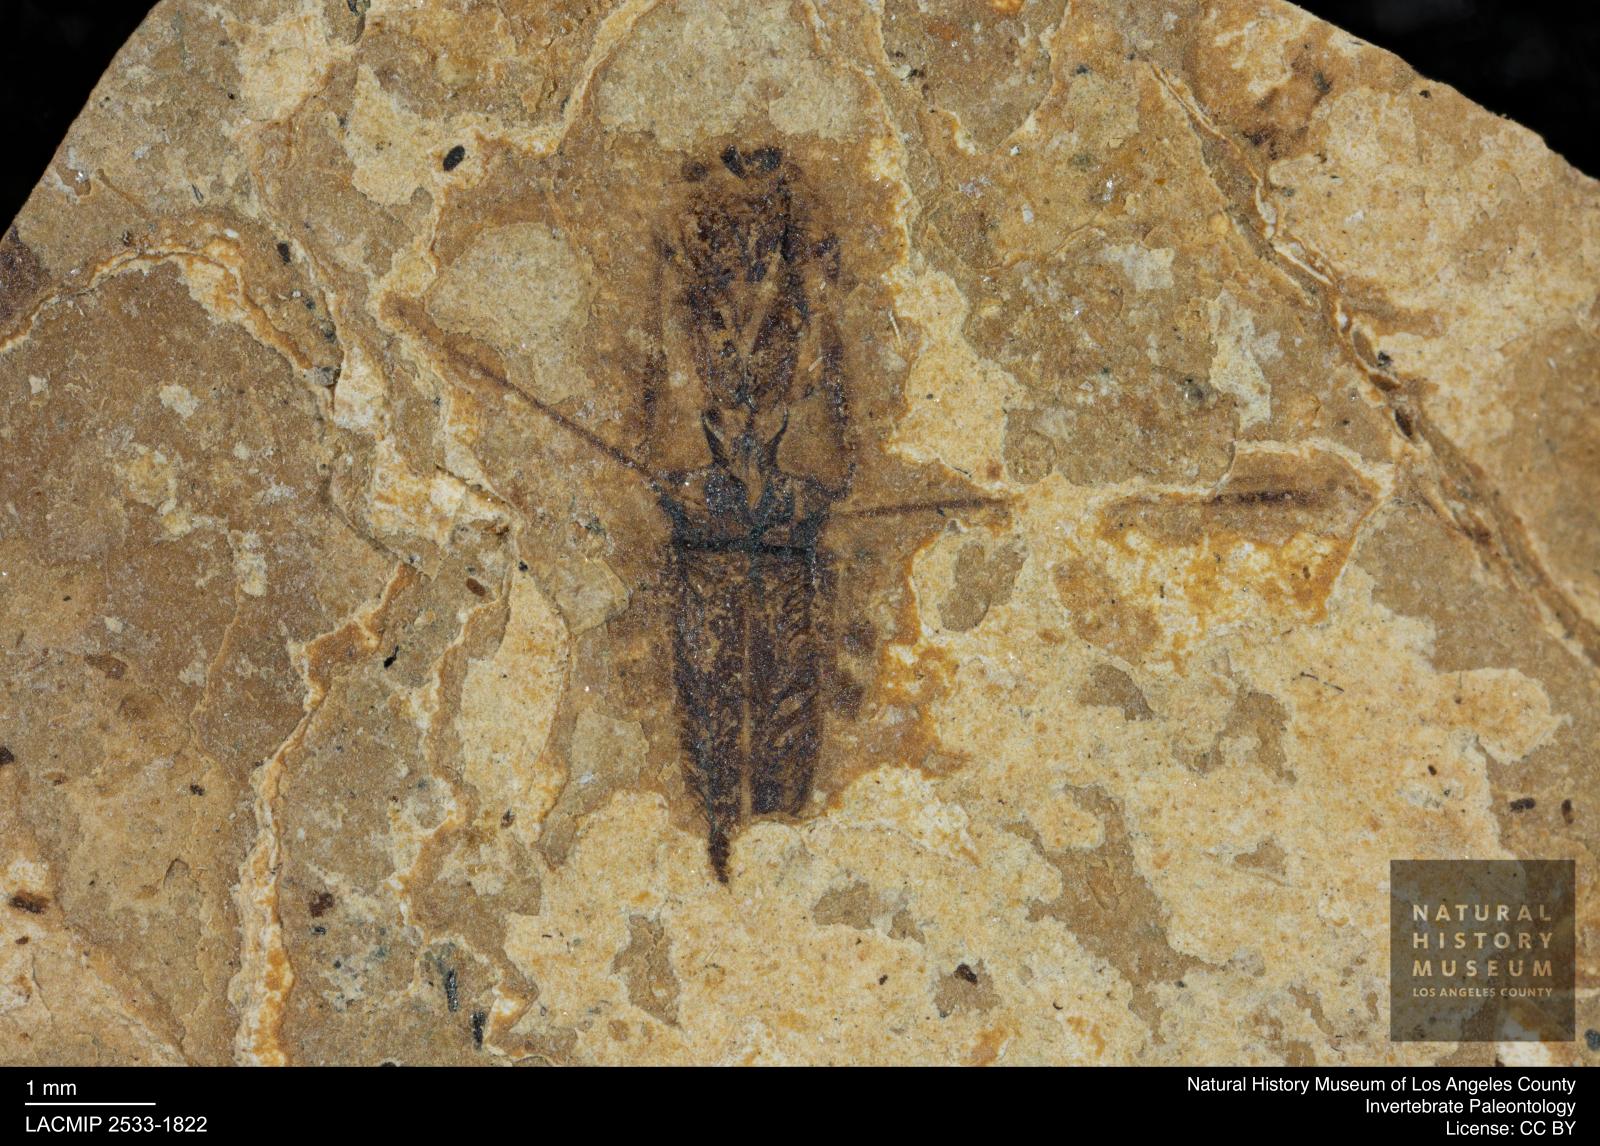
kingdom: Animalia
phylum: Arthropoda
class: Insecta
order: Hemiptera
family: Notonectidae
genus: Notonecta
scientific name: Notonecta
